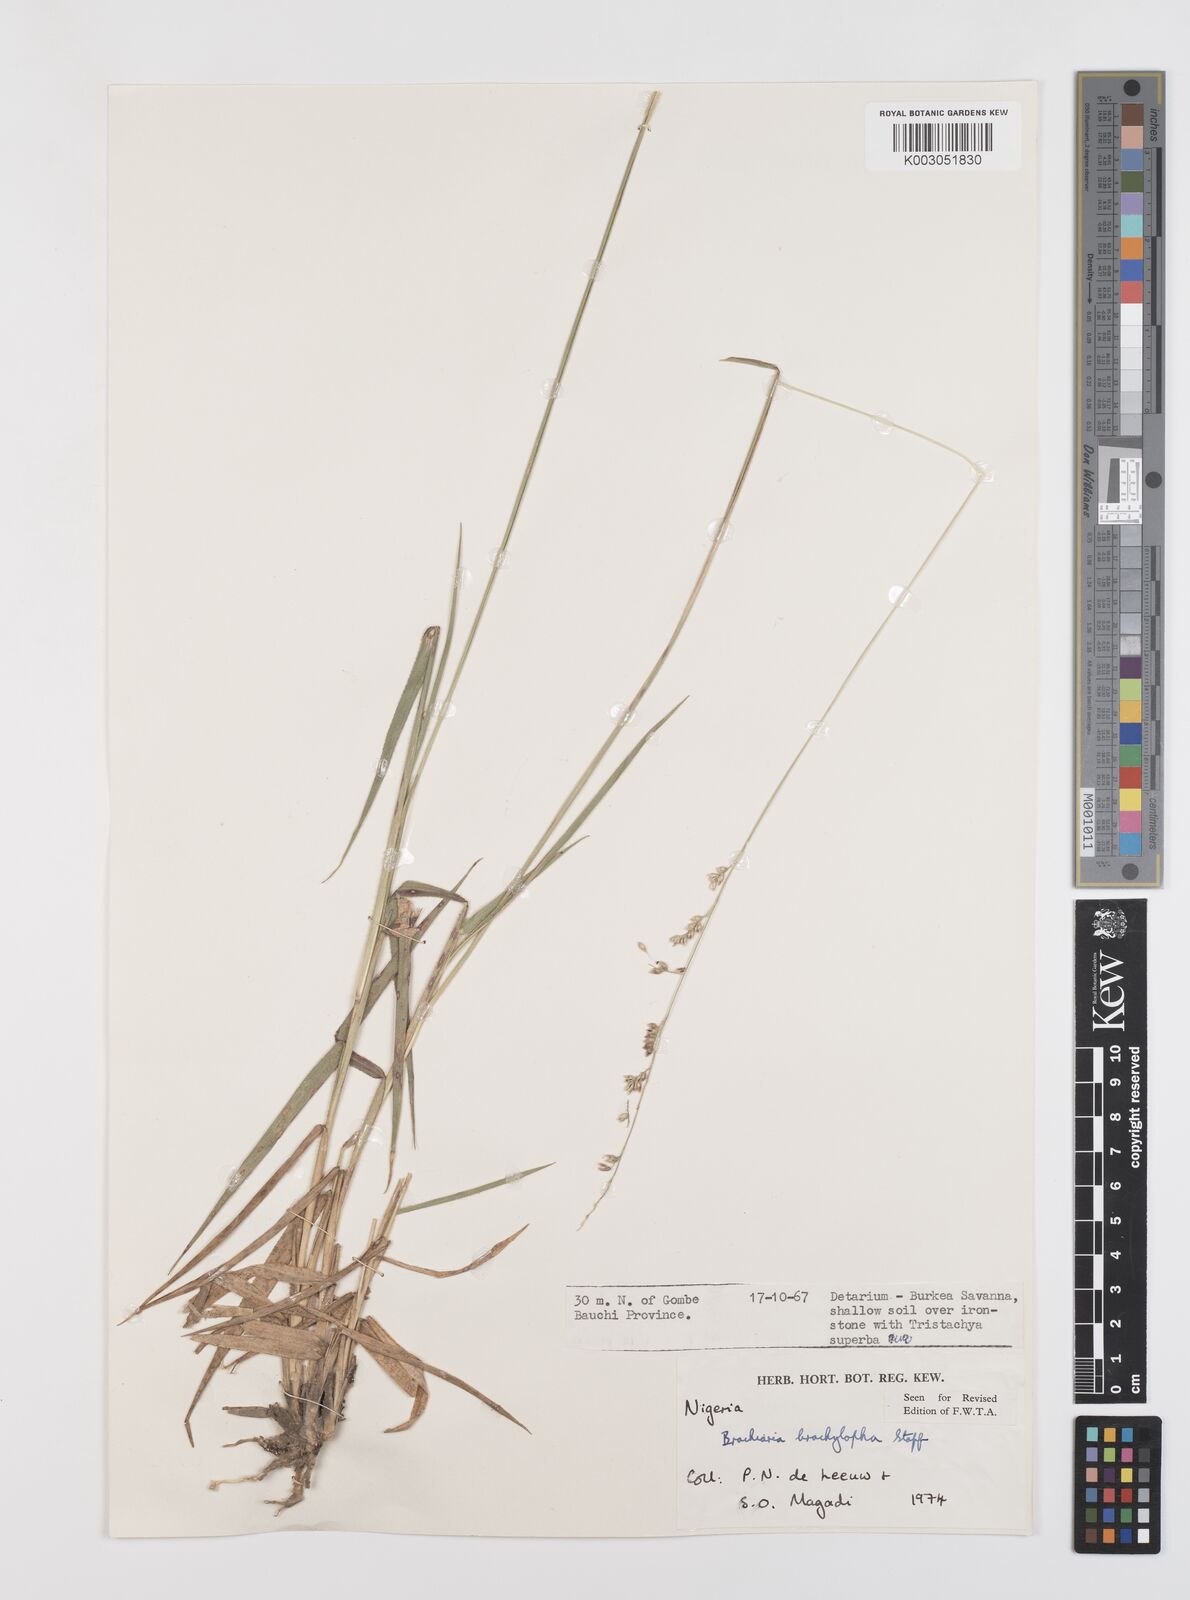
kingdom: Plantae
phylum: Tracheophyta
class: Liliopsida
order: Poales
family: Poaceae
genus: Urochloa
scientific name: Urochloa serrata
